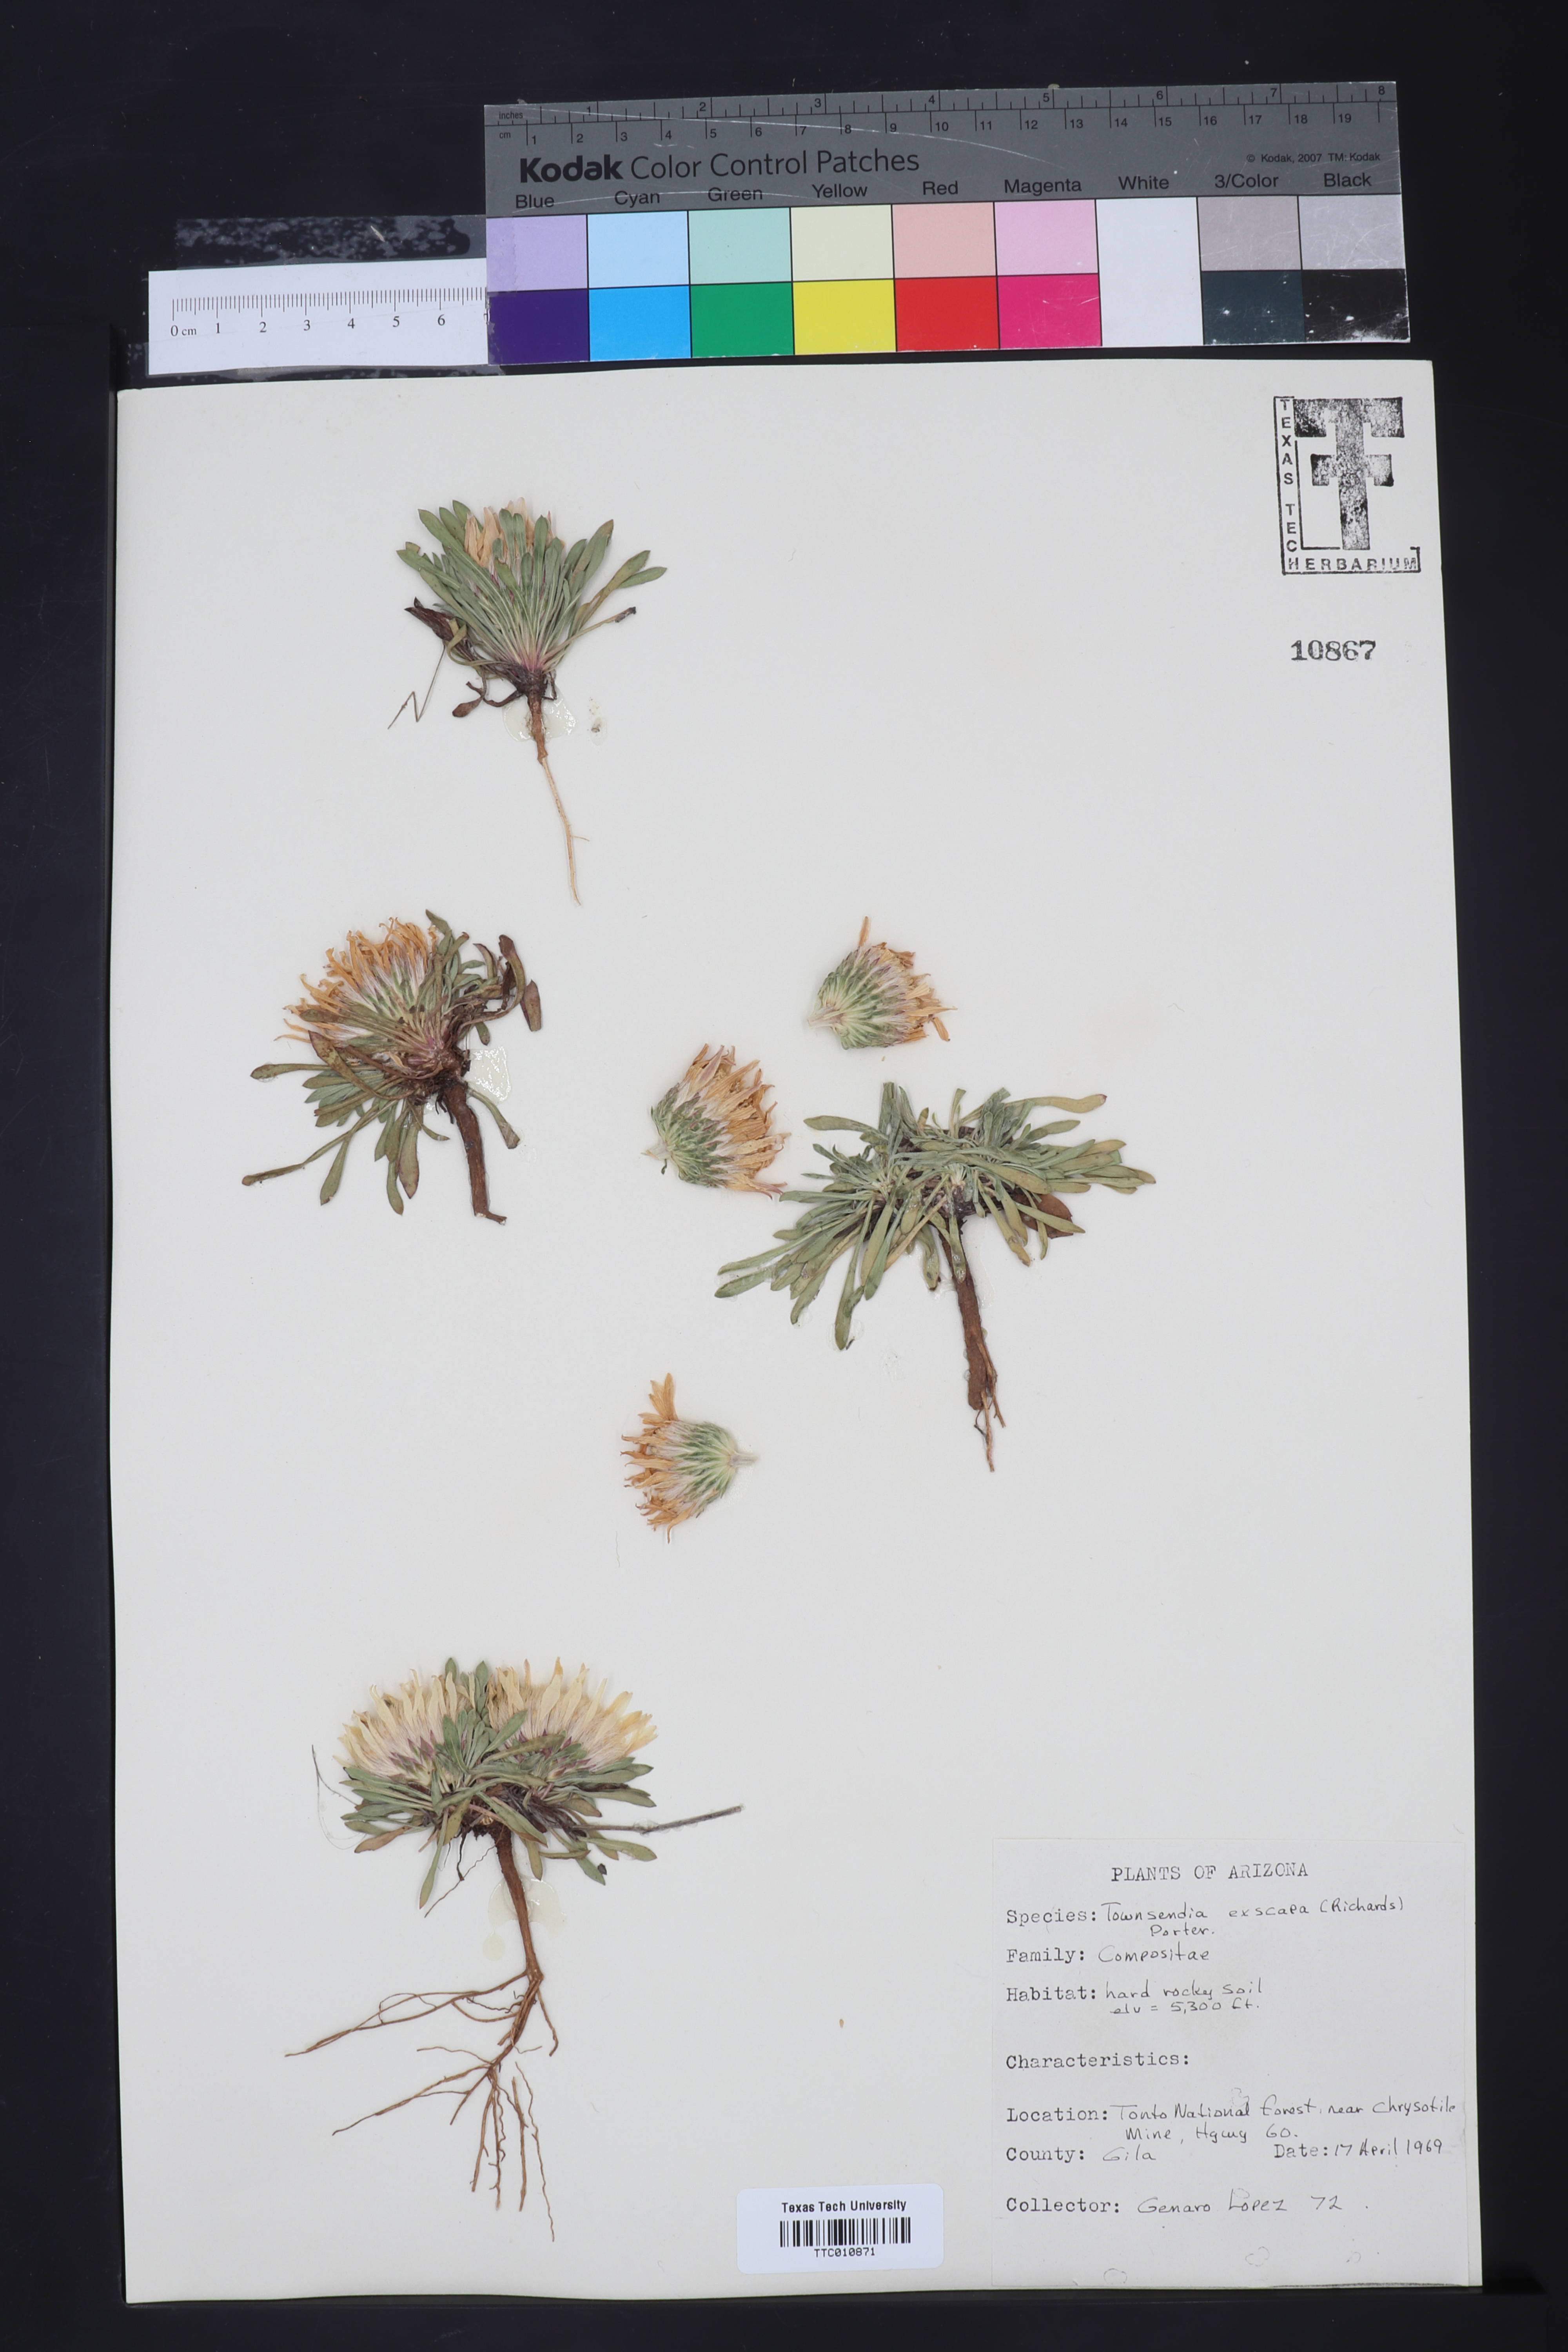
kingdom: Plantae
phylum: Tracheophyta
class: Magnoliopsida
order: Asterales
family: Asteraceae
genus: Townsendia
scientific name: Townsendia exscapa
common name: Dwarf townsendia
